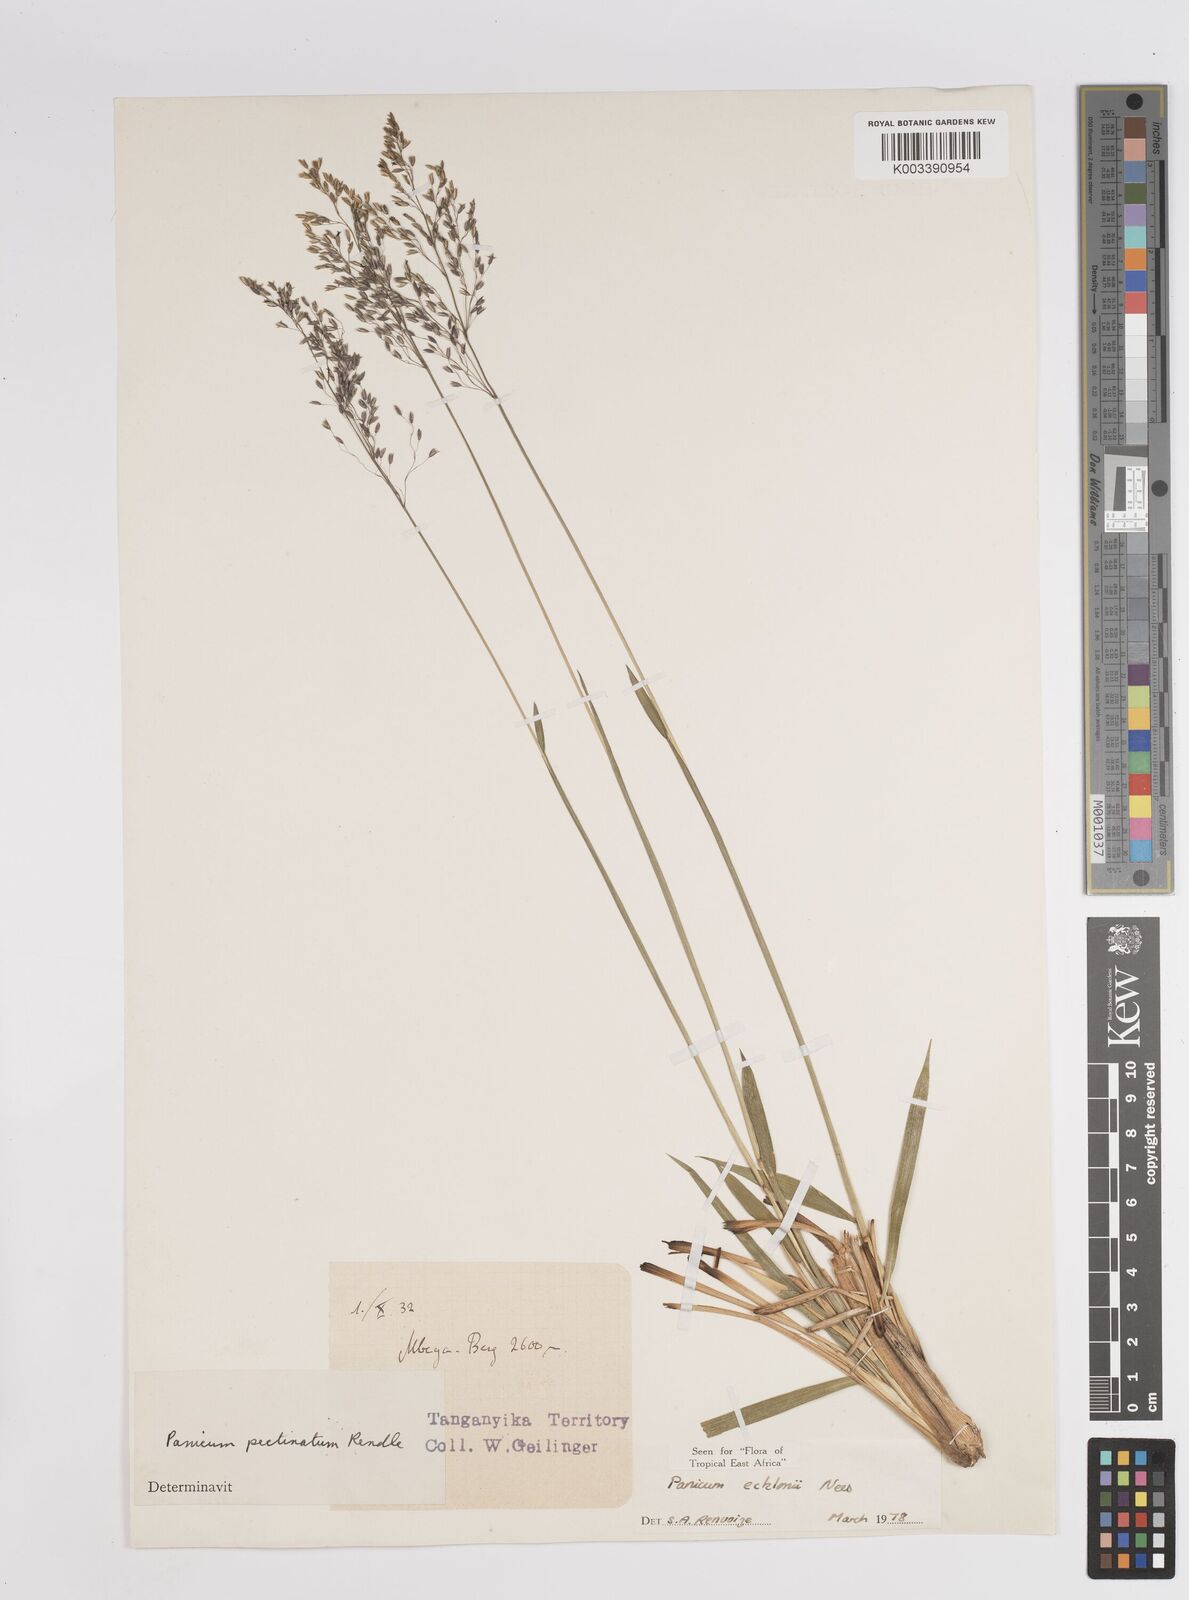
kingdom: Plantae
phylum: Tracheophyta
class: Liliopsida
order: Poales
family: Poaceae
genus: Adenochloa
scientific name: Adenochloa ecklonii
